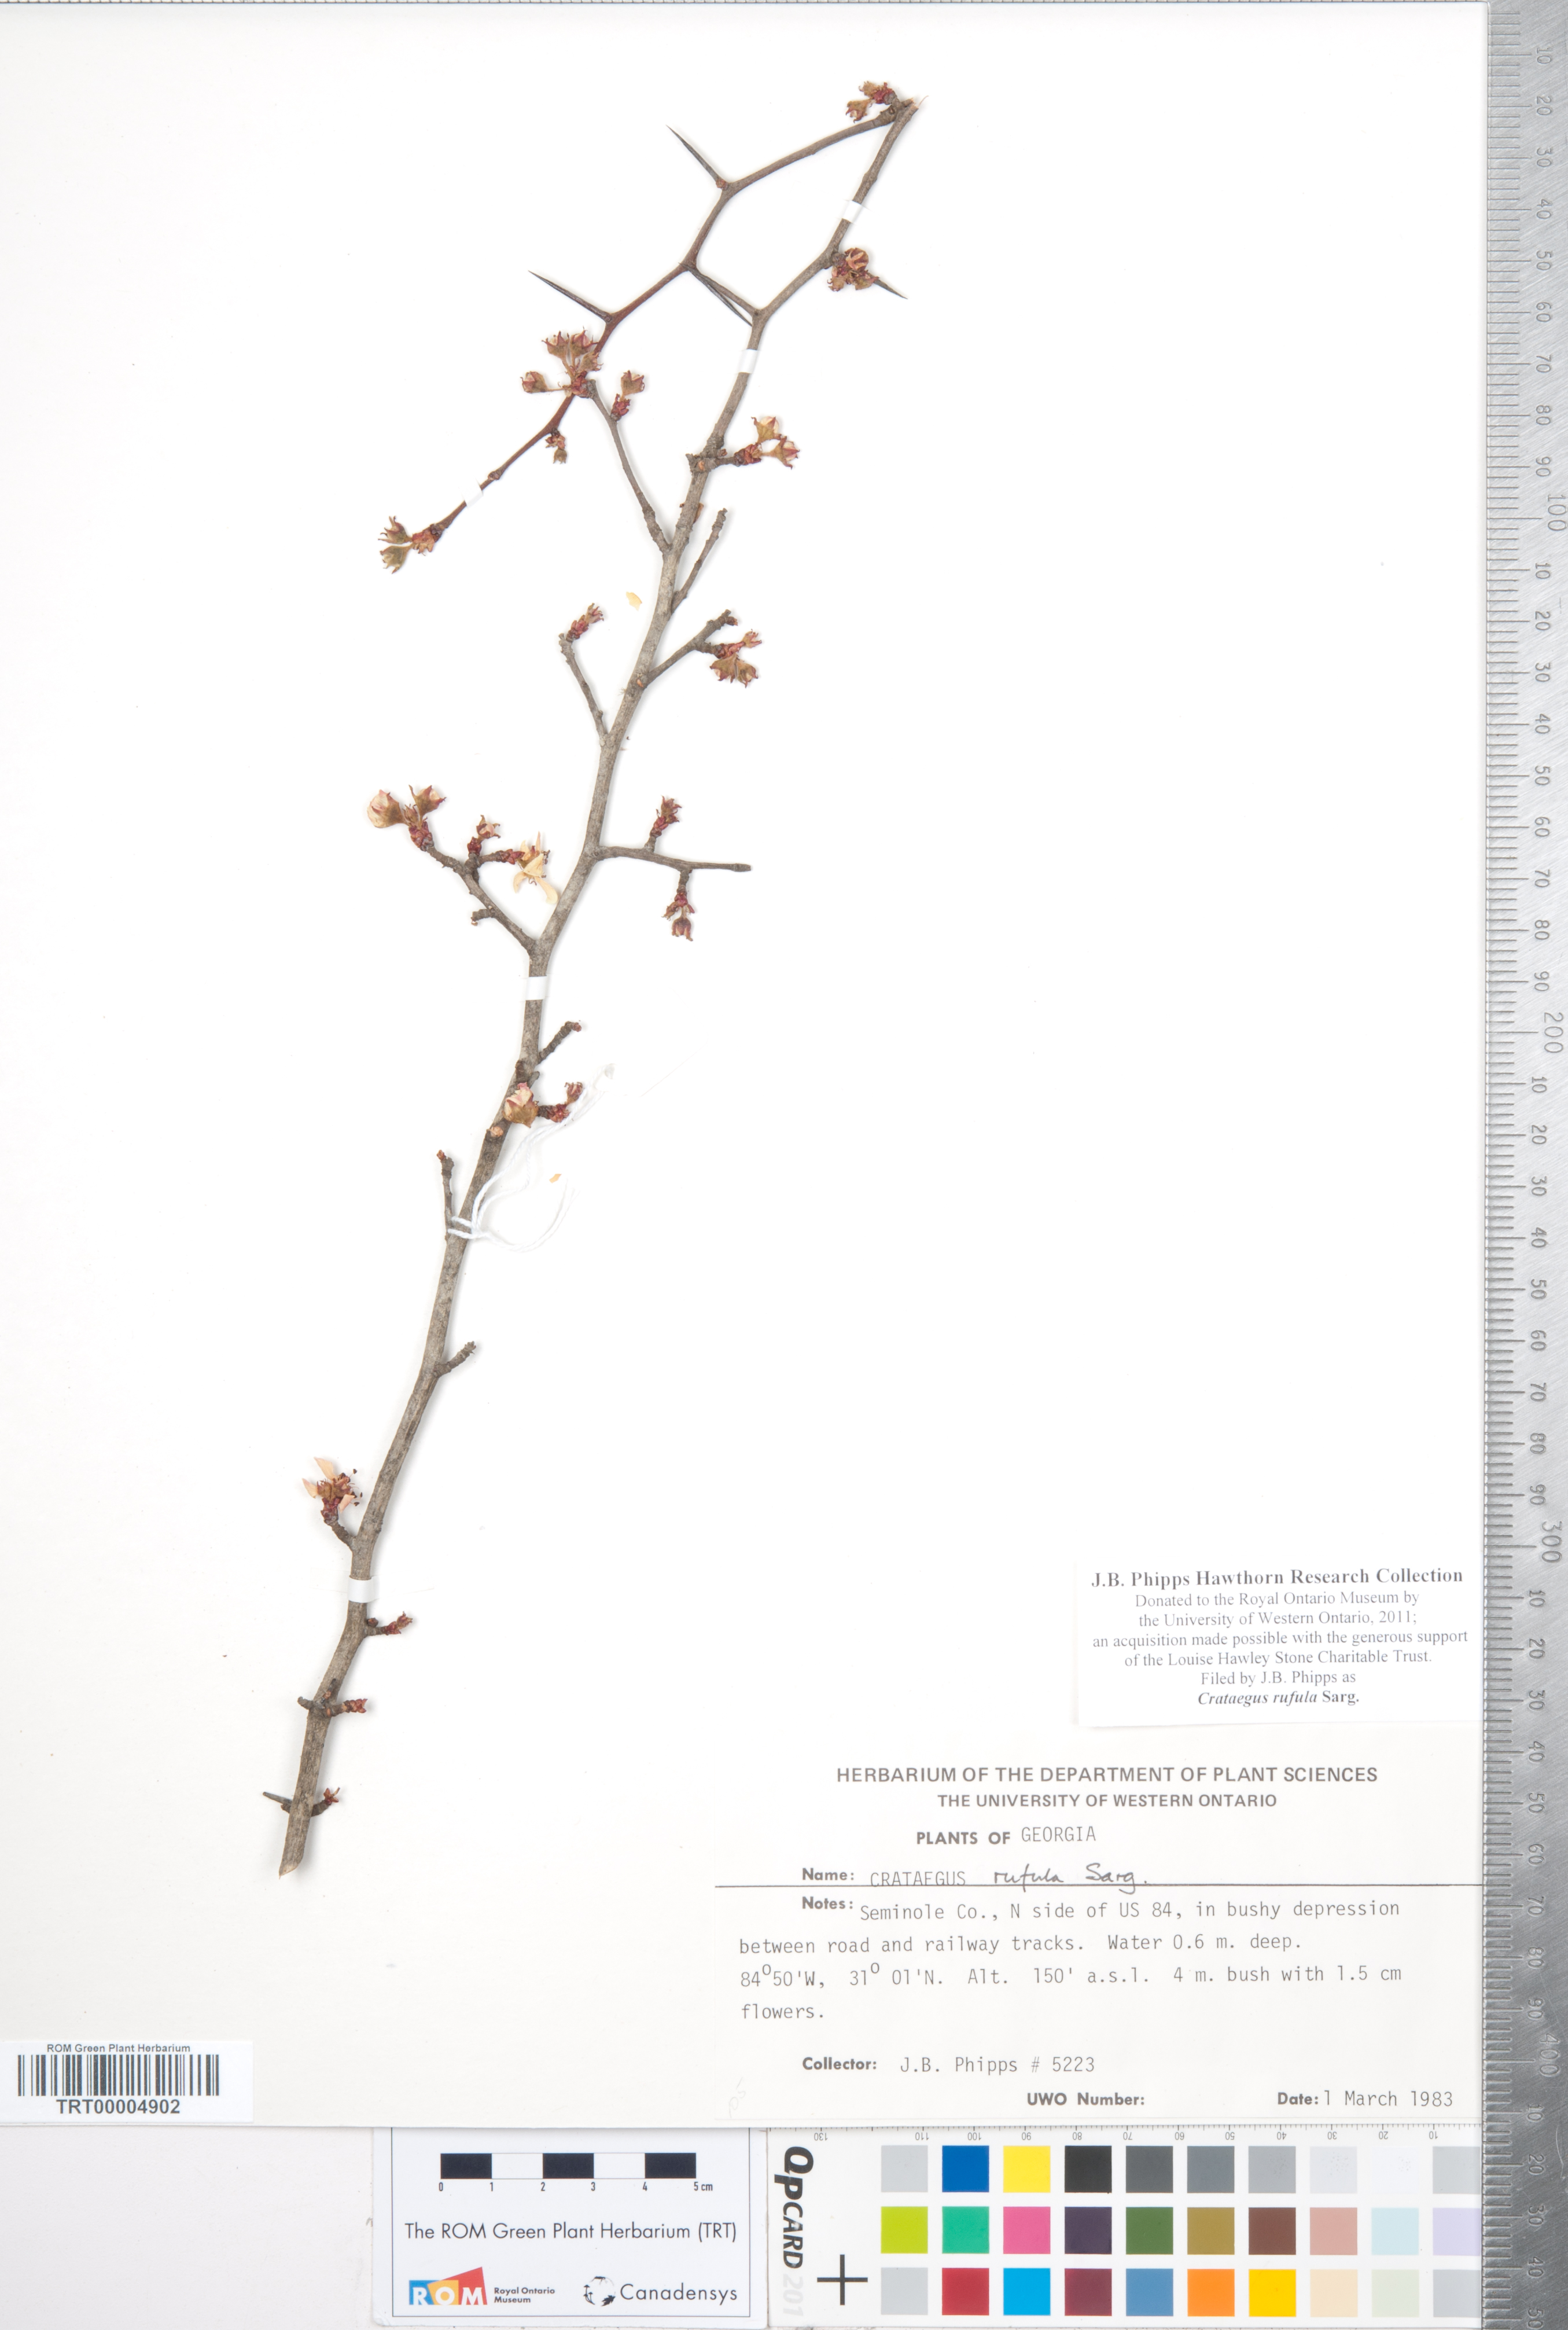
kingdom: Plantae
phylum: Tracheophyta
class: Magnoliopsida
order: Rosales
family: Rosaceae
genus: Crataegus
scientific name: Crataegus rufula
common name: Rufous mayhaw
